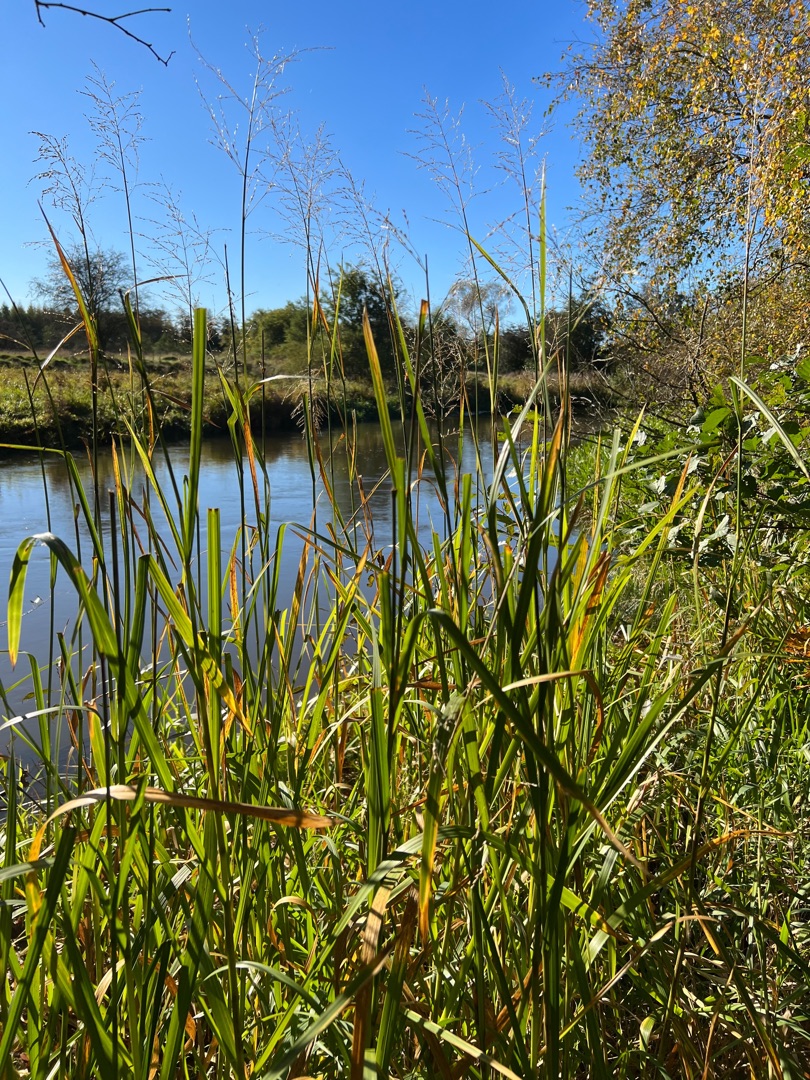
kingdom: Plantae
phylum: Tracheophyta
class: Liliopsida
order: Poales
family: Poaceae
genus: Glyceria
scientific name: Glyceria maxima
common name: Høj sødgræs
